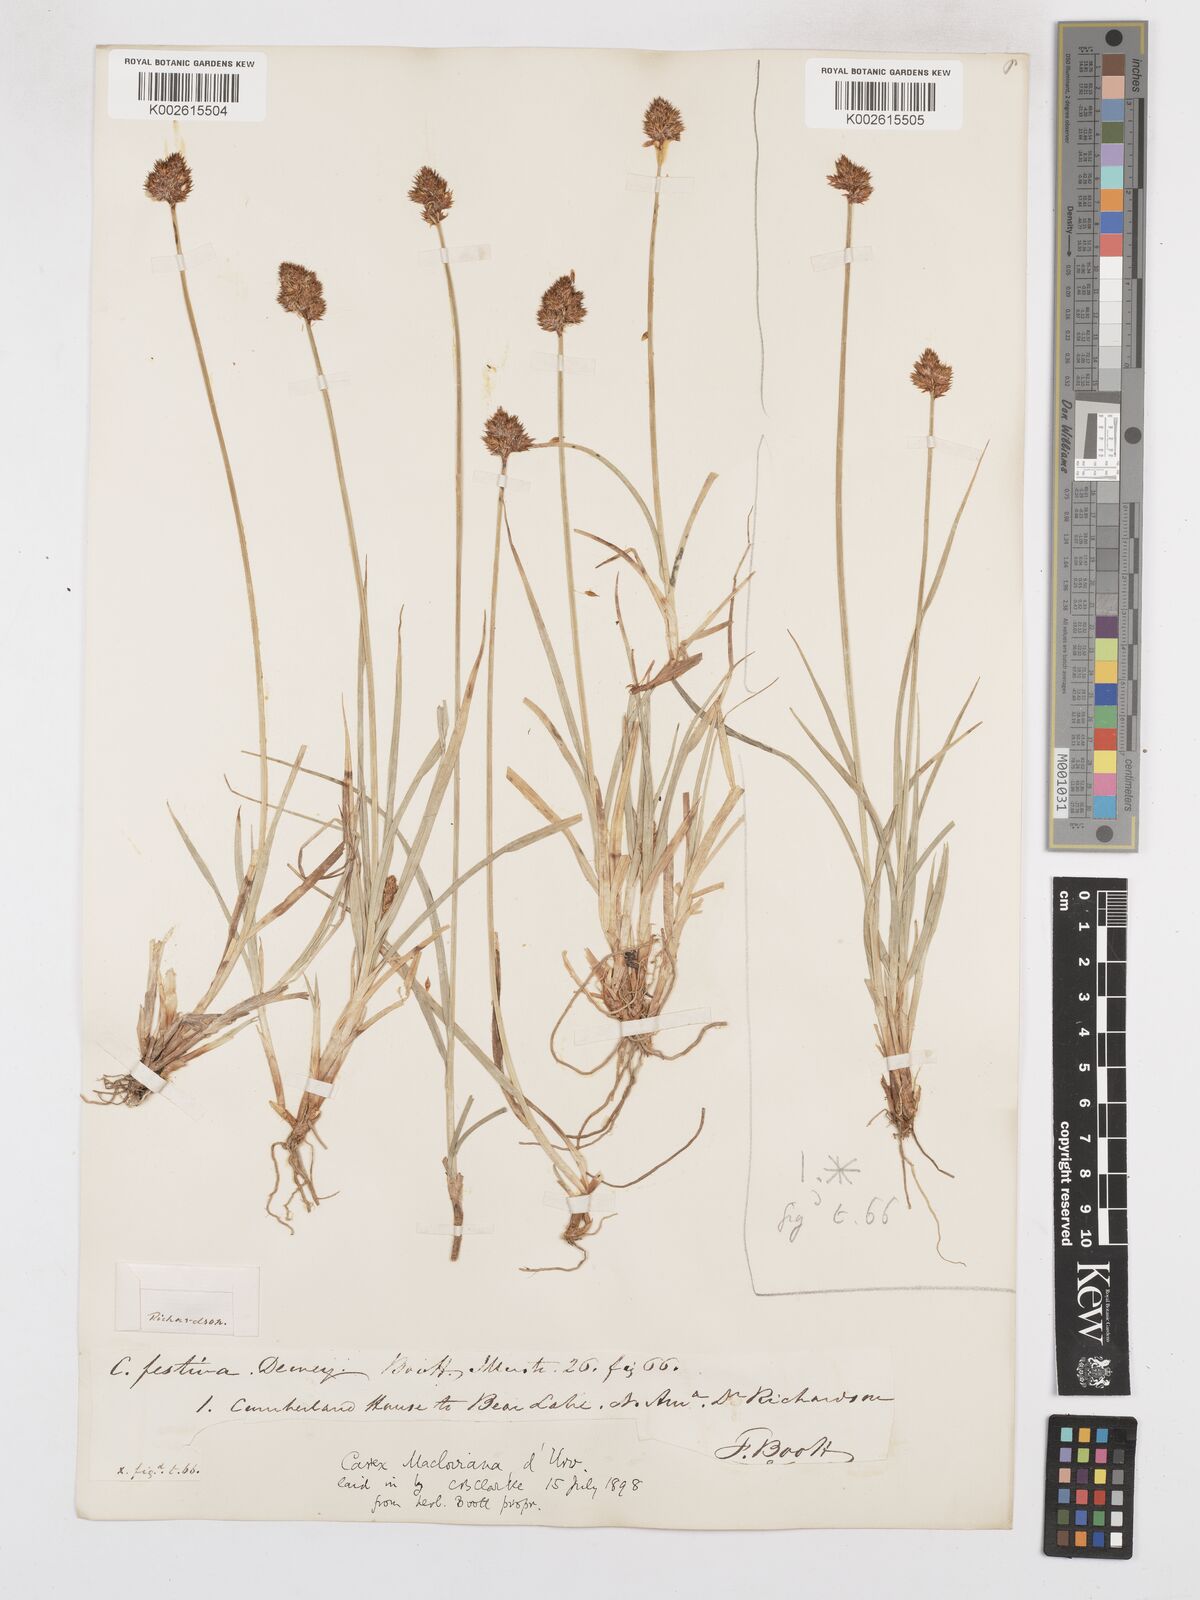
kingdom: Plantae
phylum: Tracheophyta
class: Liliopsida
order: Poales
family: Cyperaceae
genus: Carex
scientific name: Carex macloviana
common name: Falkland island sedge
